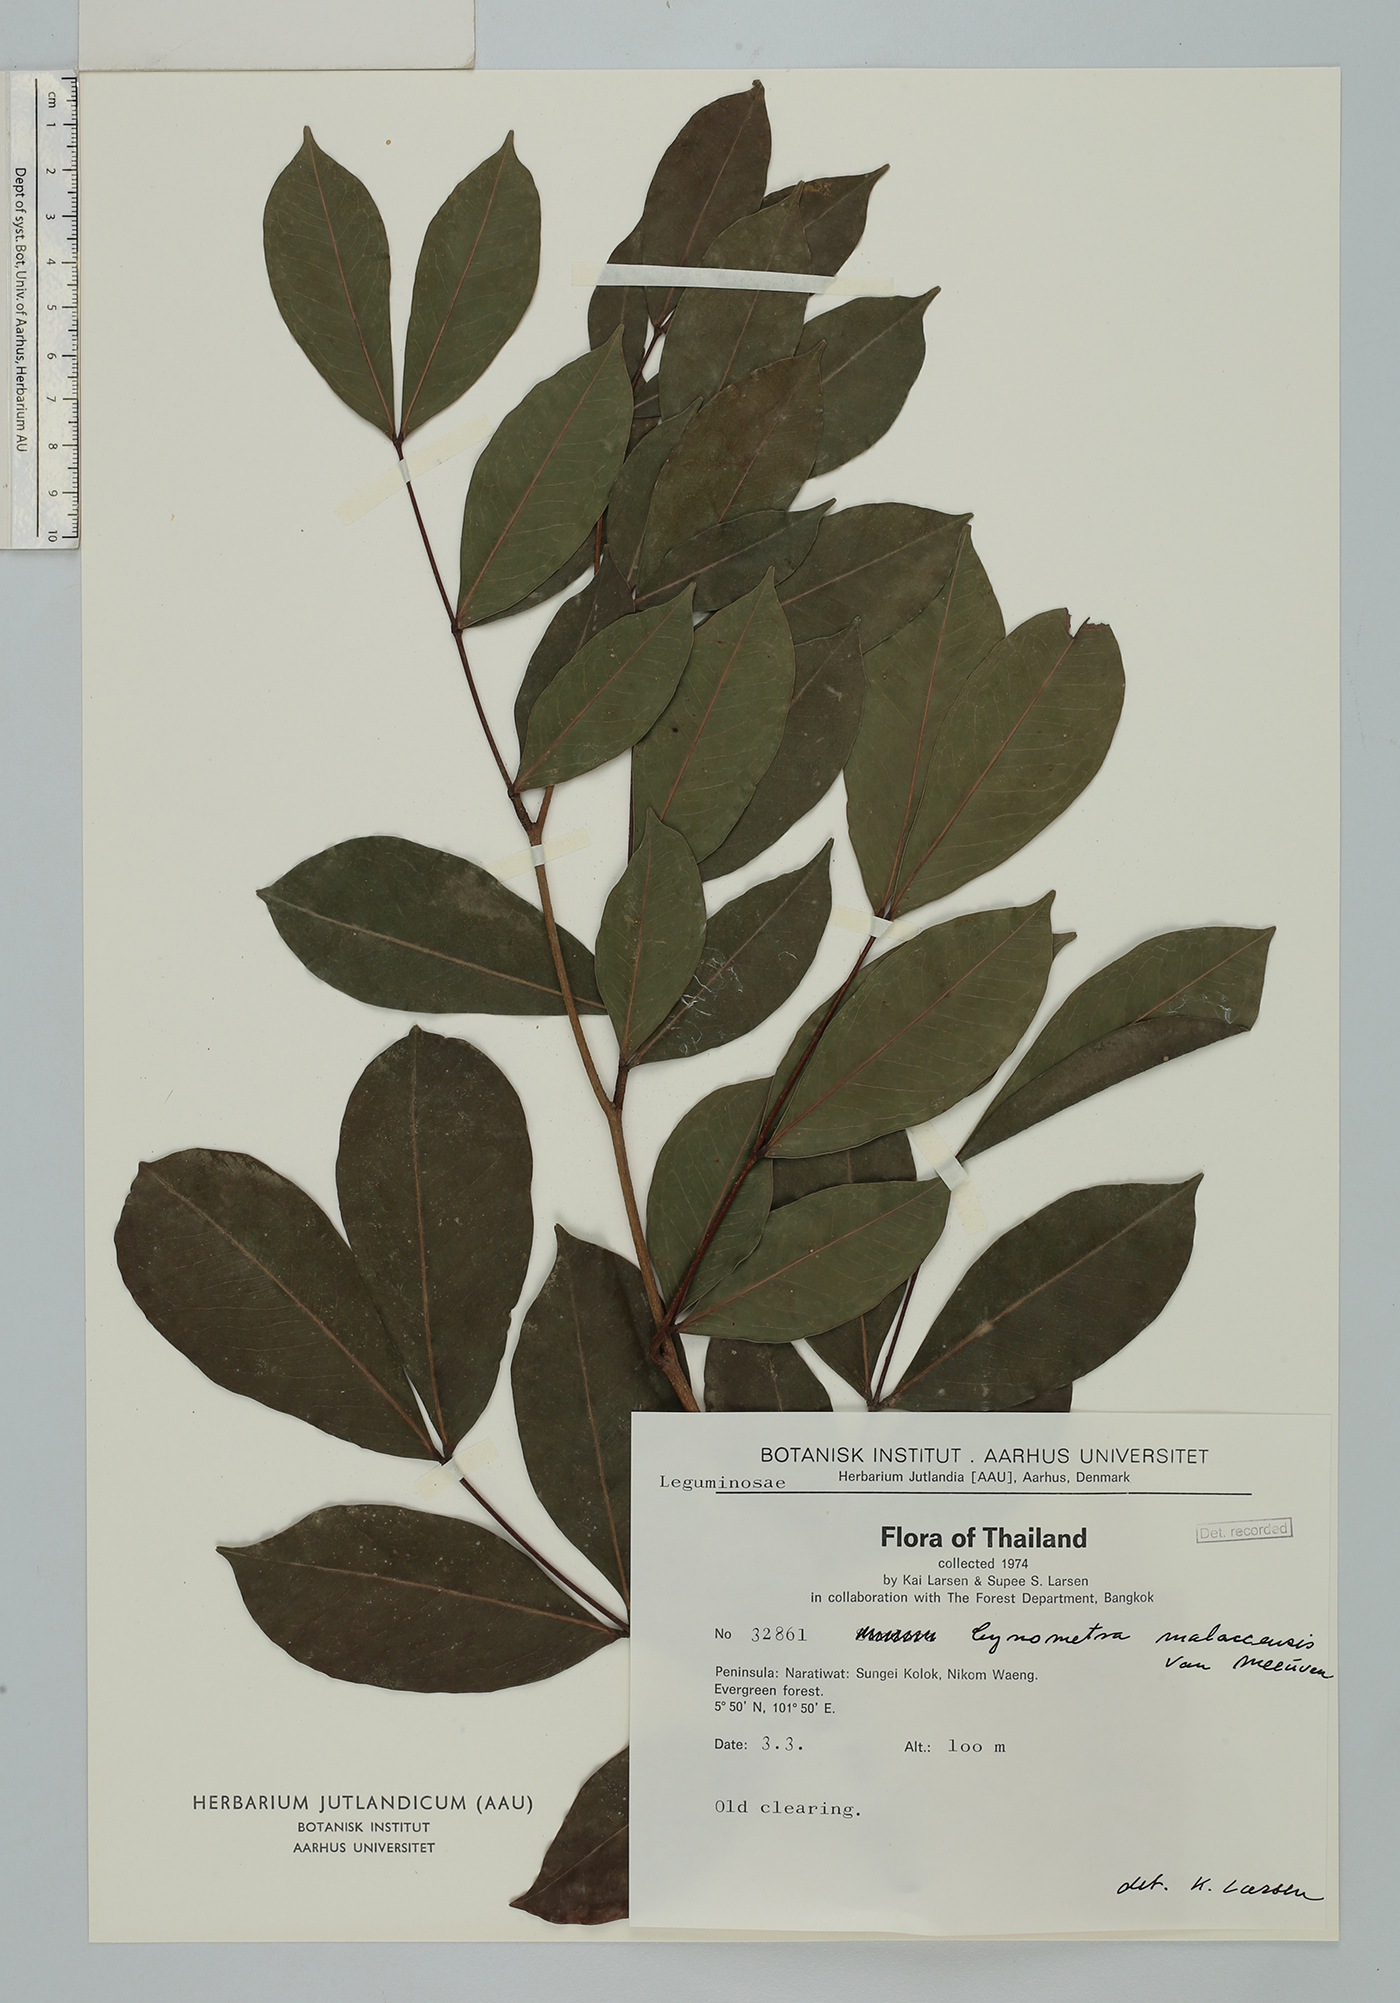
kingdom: Plantae
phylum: Tracheophyta
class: Magnoliopsida
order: Fabales
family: Fabaceae
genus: Cynometra
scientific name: Cynometra malaccensis
